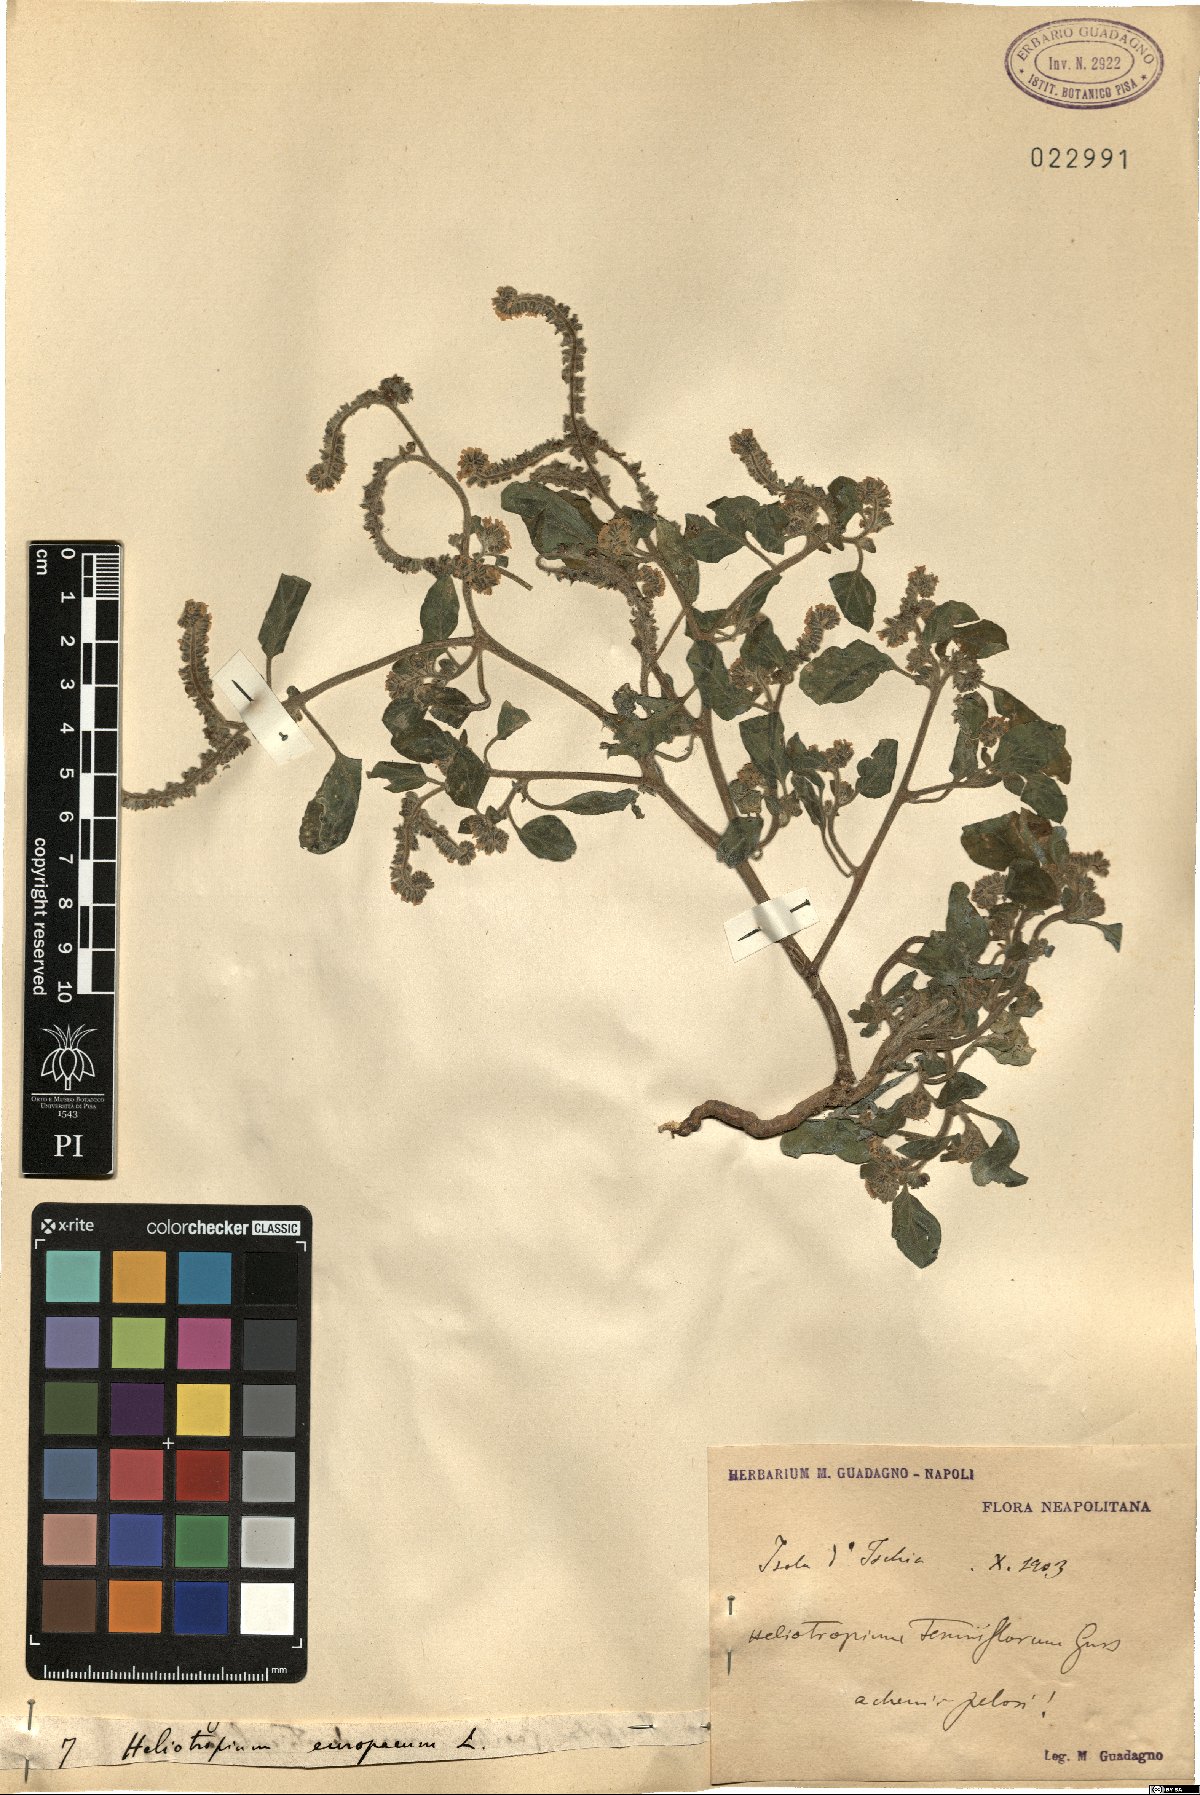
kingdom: Plantae
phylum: Tracheophyta
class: Magnoliopsida
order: Boraginales
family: Heliotropiaceae
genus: Heliotropium
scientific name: Heliotropium europaeum
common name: European heliotrope
